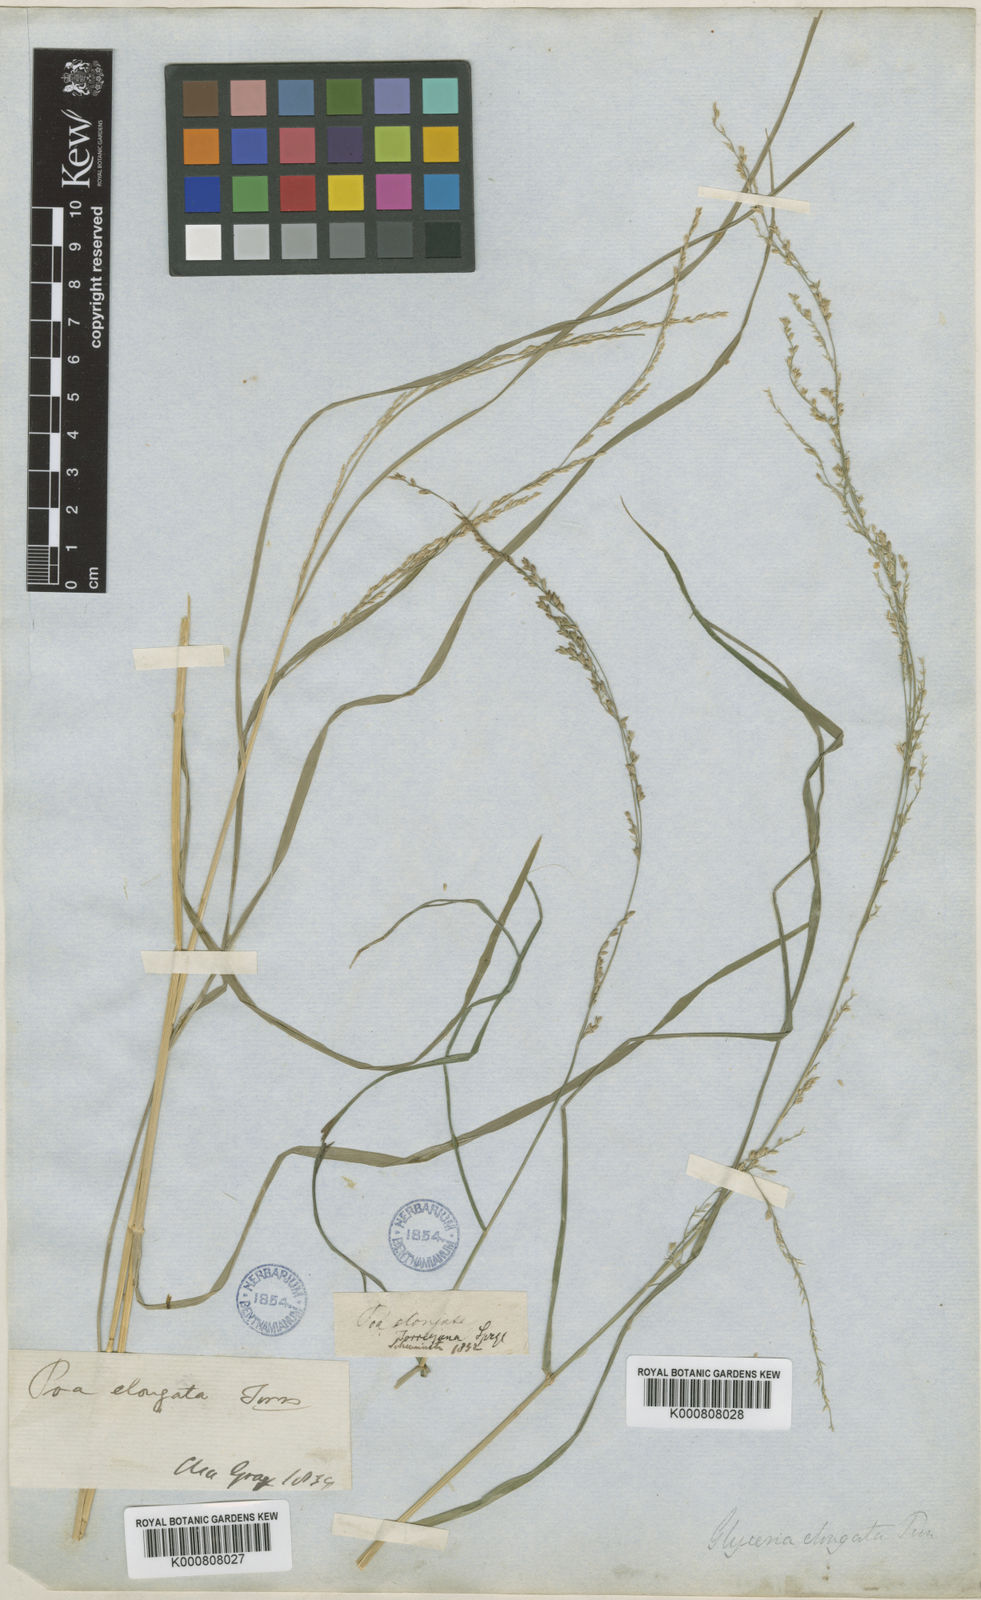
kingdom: Plantae
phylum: Tracheophyta
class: Liliopsida
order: Poales
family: Poaceae
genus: Glyceria
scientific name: Glyceria melicaria
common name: Long mannagrass
